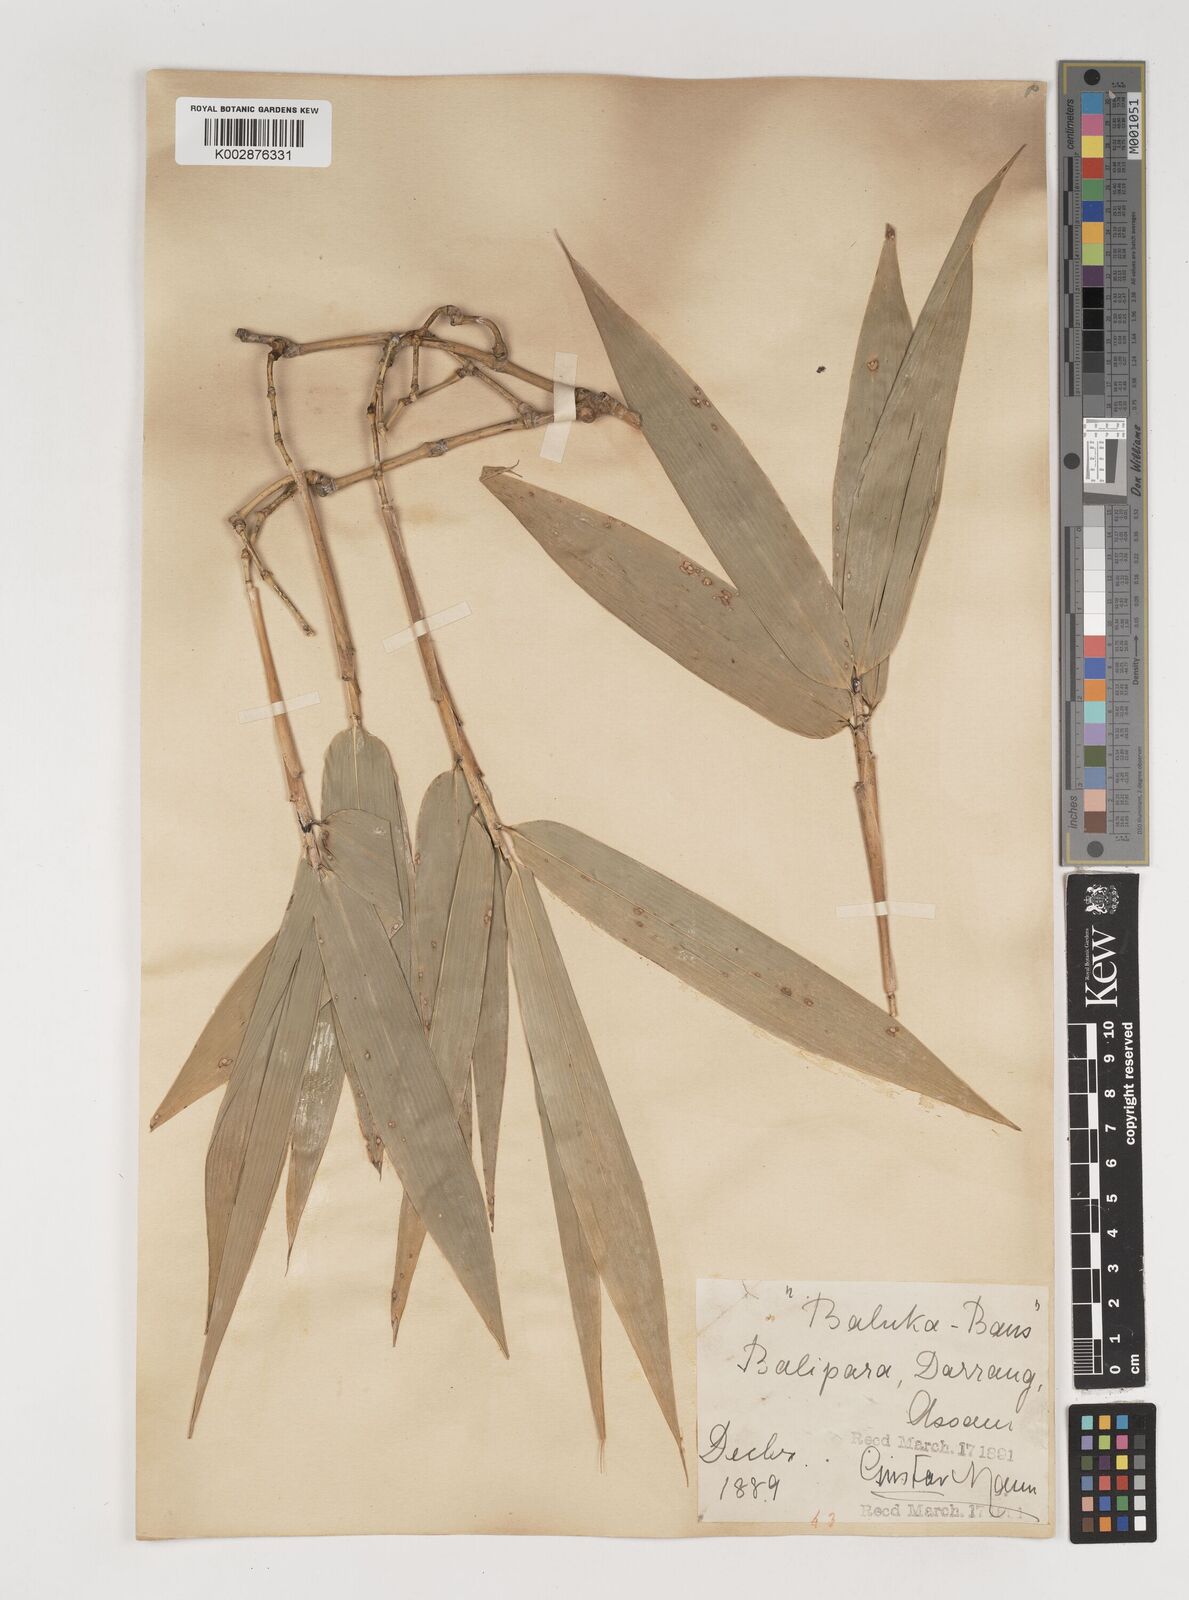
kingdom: Plantae
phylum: Tracheophyta
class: Liliopsida
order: Poales
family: Poaceae
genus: Bambusa
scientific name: Bambusa balcooa
